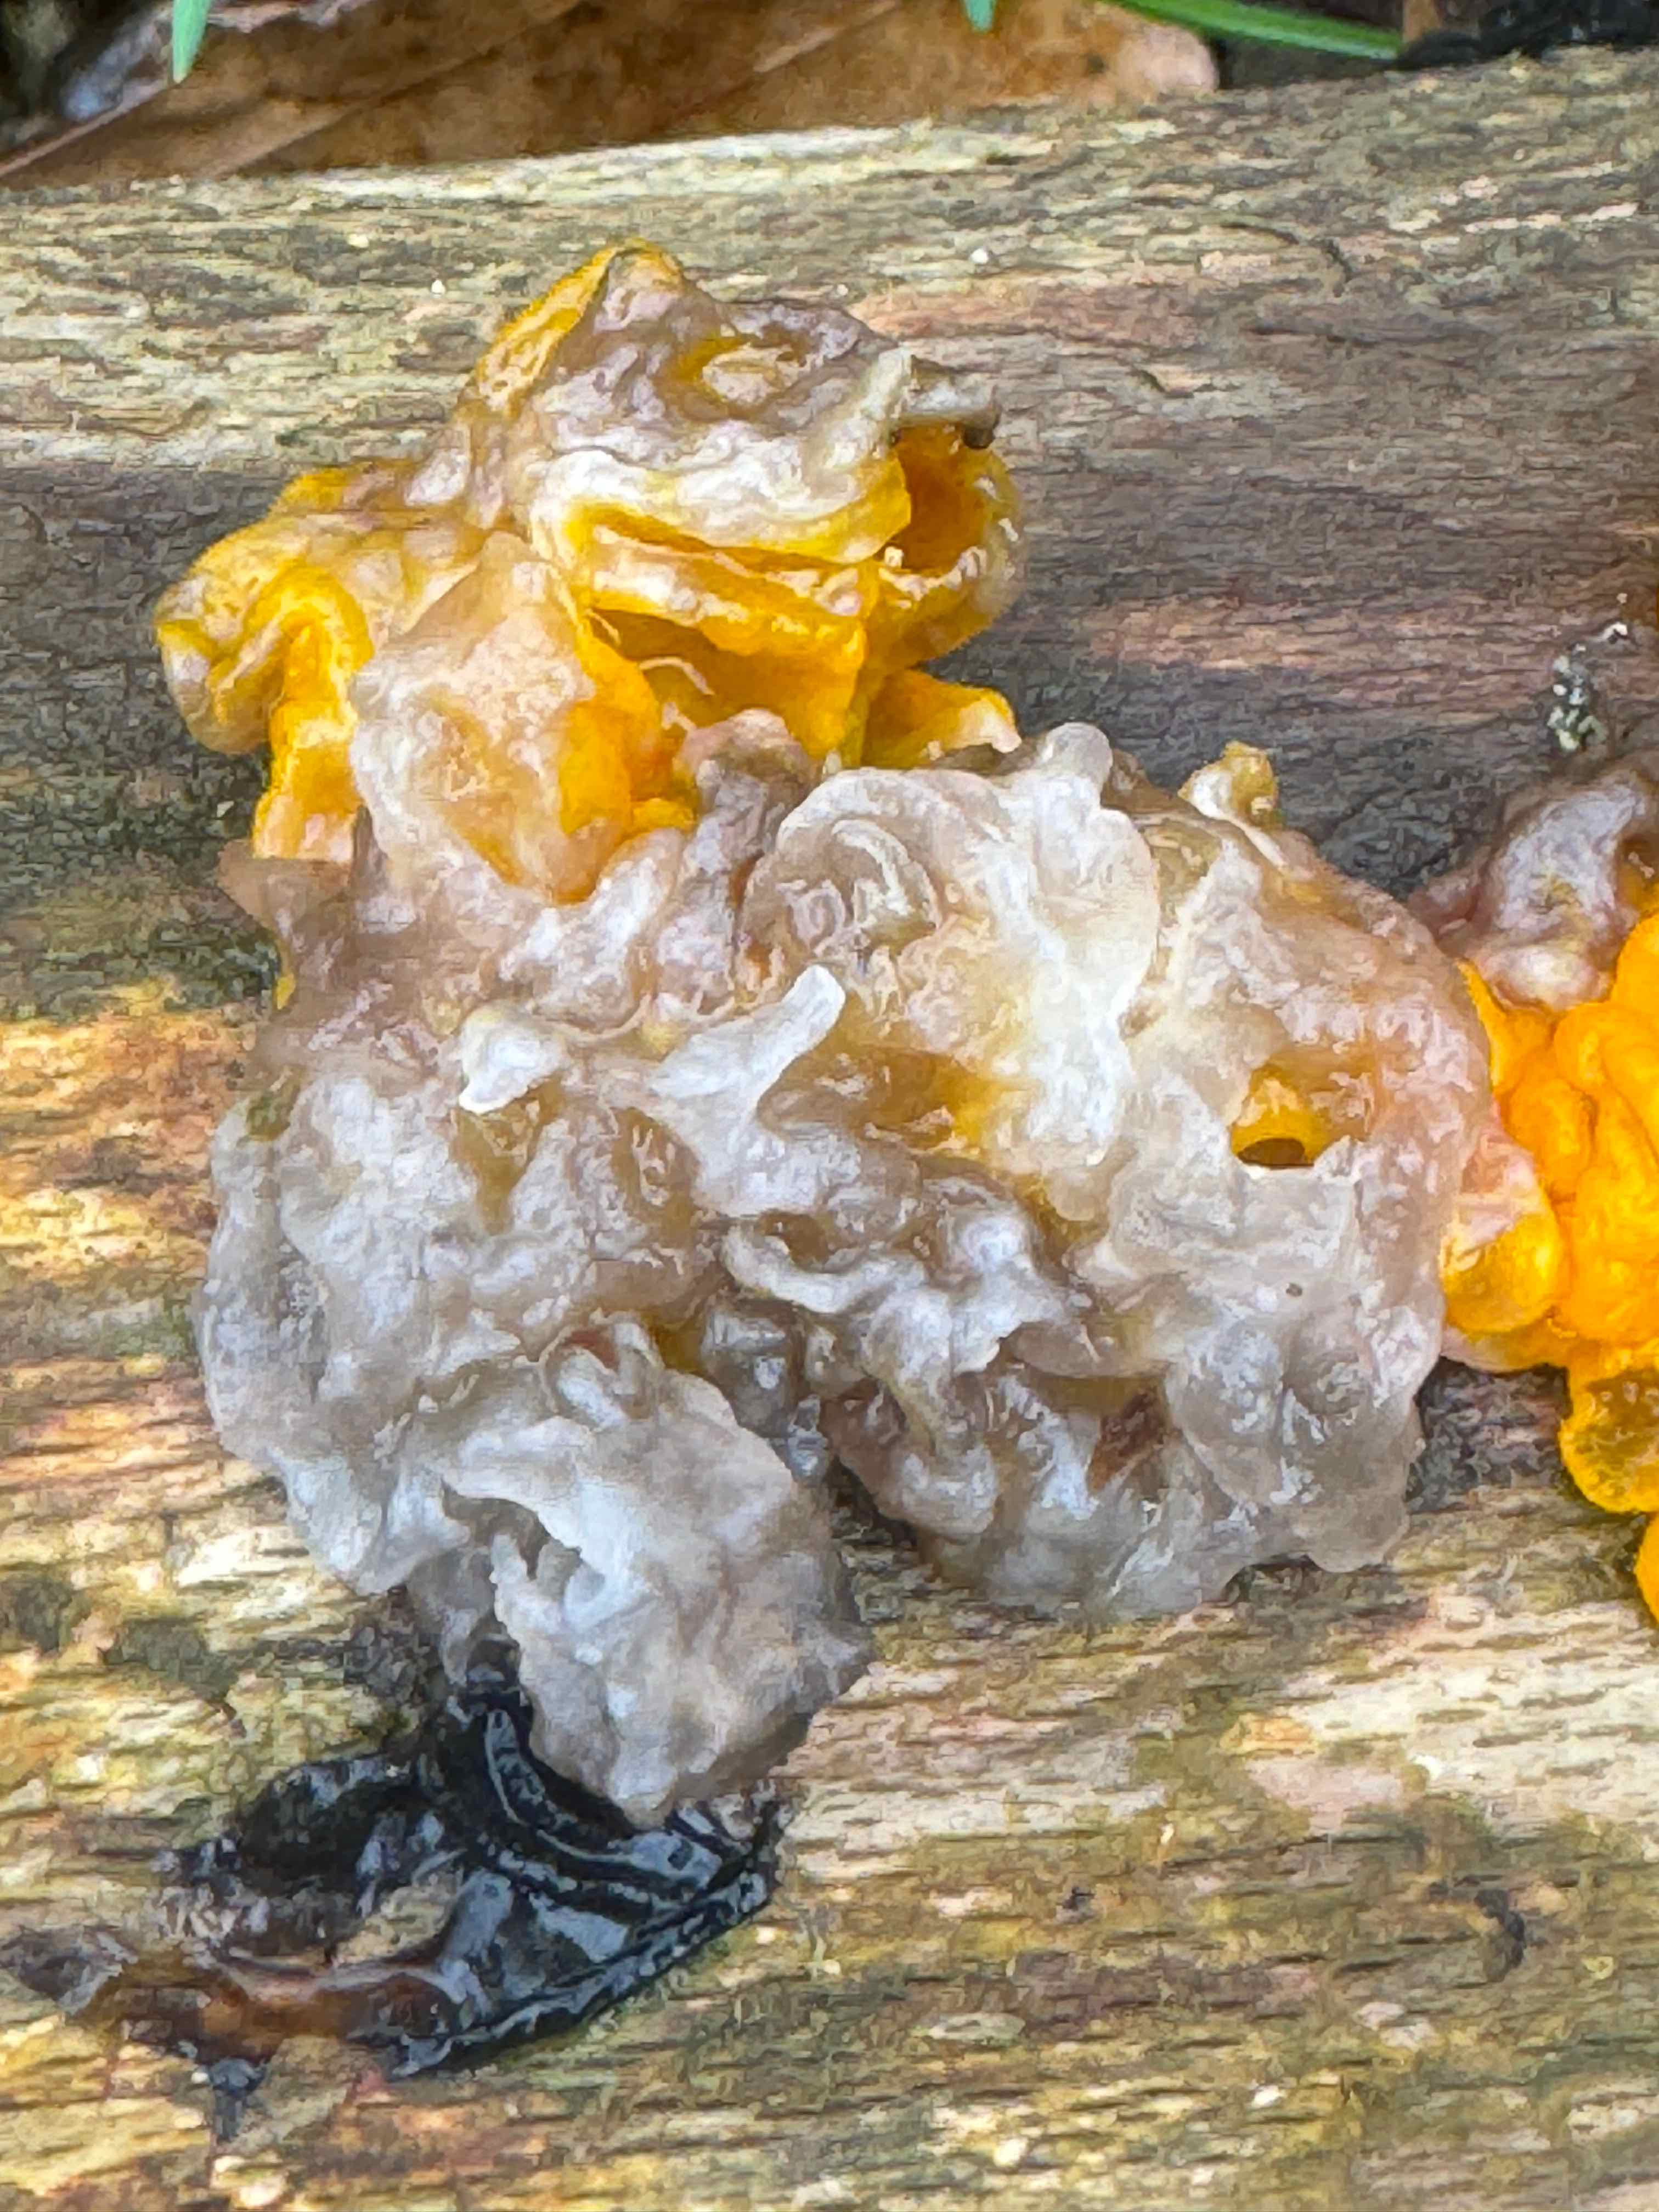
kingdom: Fungi
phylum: Basidiomycota
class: Tremellomycetes
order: Tremellales
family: Tremellaceae
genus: Tremella
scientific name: Tremella mesenterica
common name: gul bævresvamp
